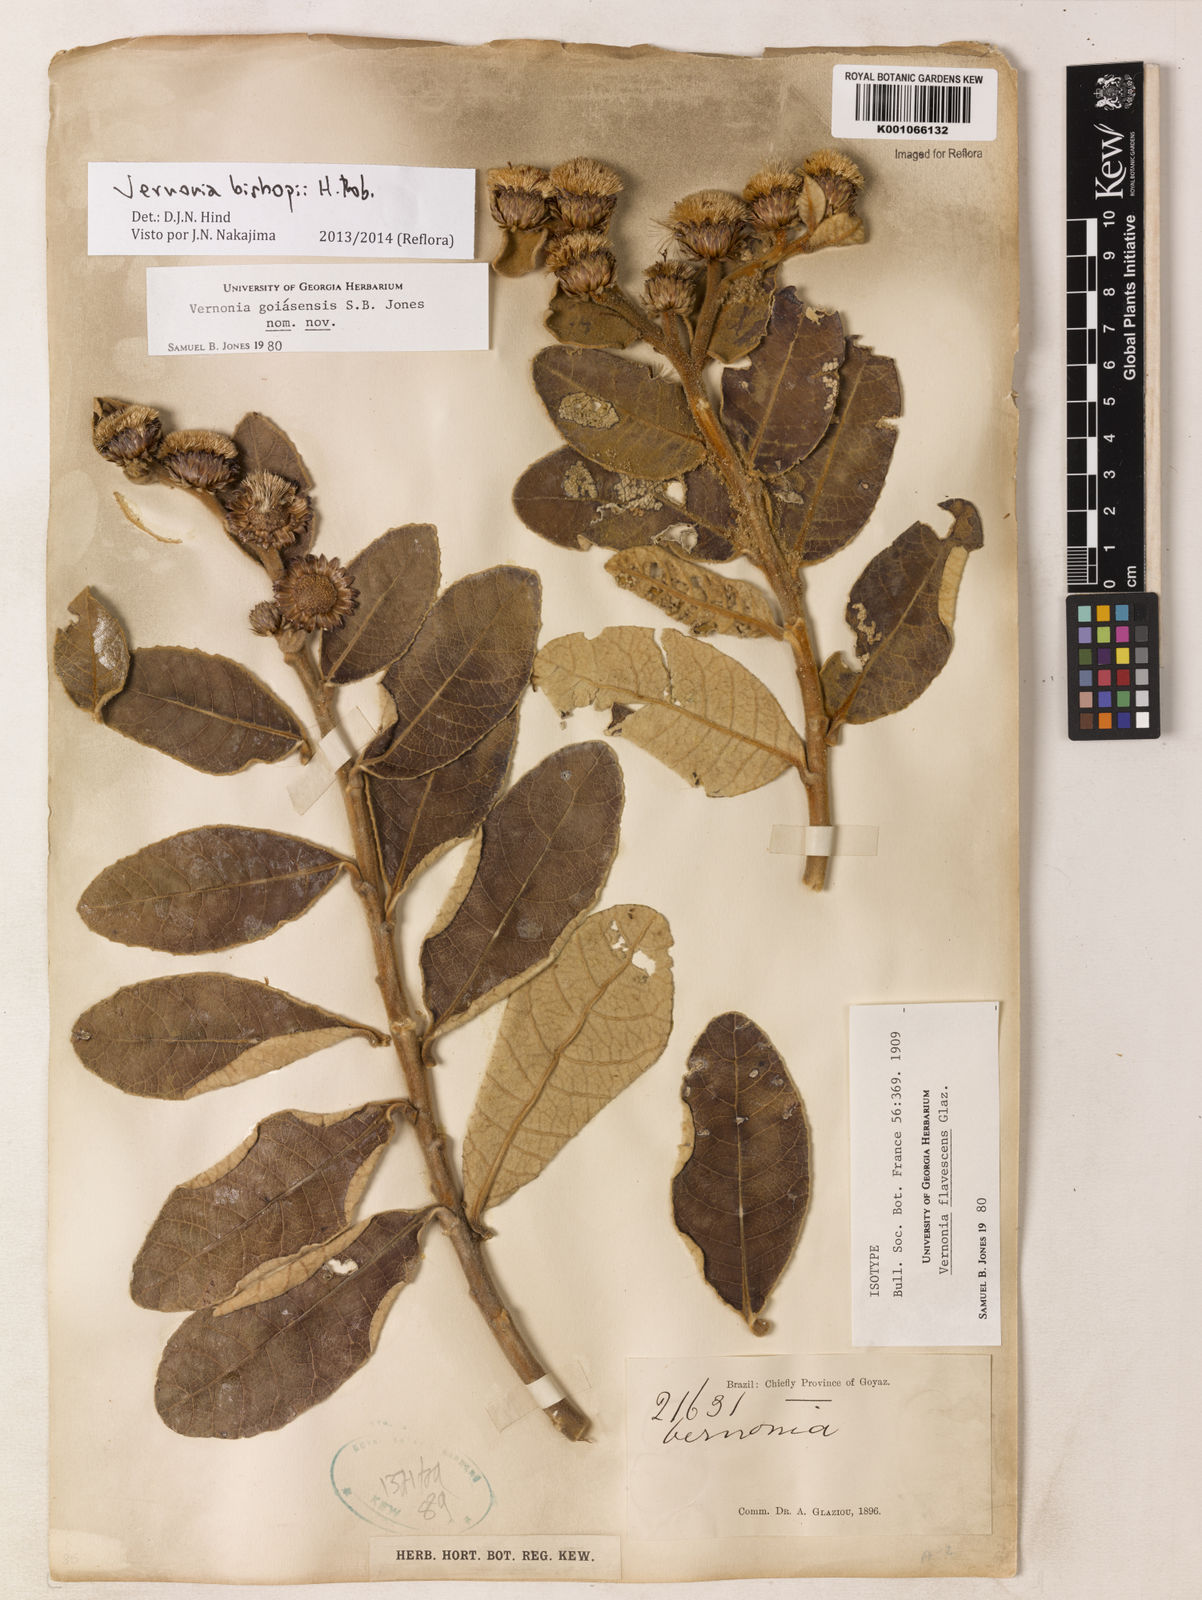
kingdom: Plantae
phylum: Tracheophyta
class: Magnoliopsida
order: Asterales
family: Asteraceae
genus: Lessingianthus
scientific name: Lessingianthus bishopii
